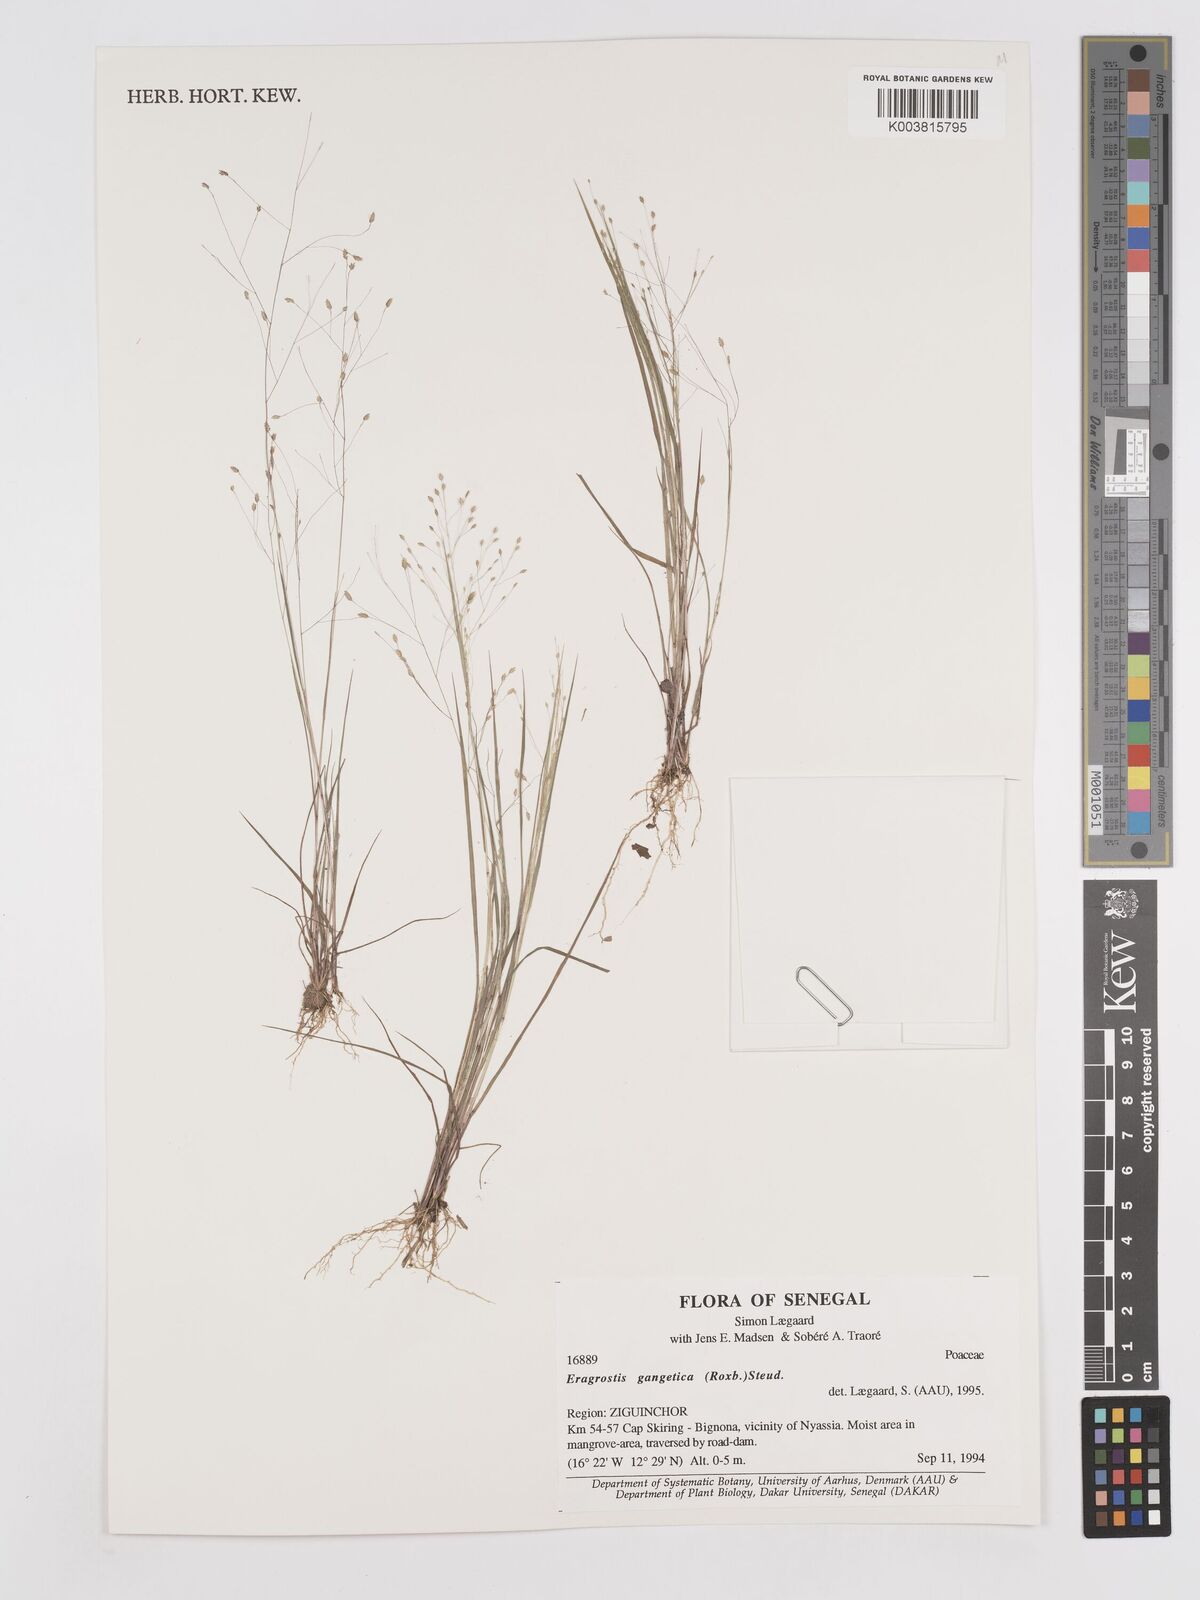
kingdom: Plantae
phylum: Tracheophyta
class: Liliopsida
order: Poales
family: Poaceae
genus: Eragrostis
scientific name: Eragrostis gangetica
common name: Slimflower lovegrass
